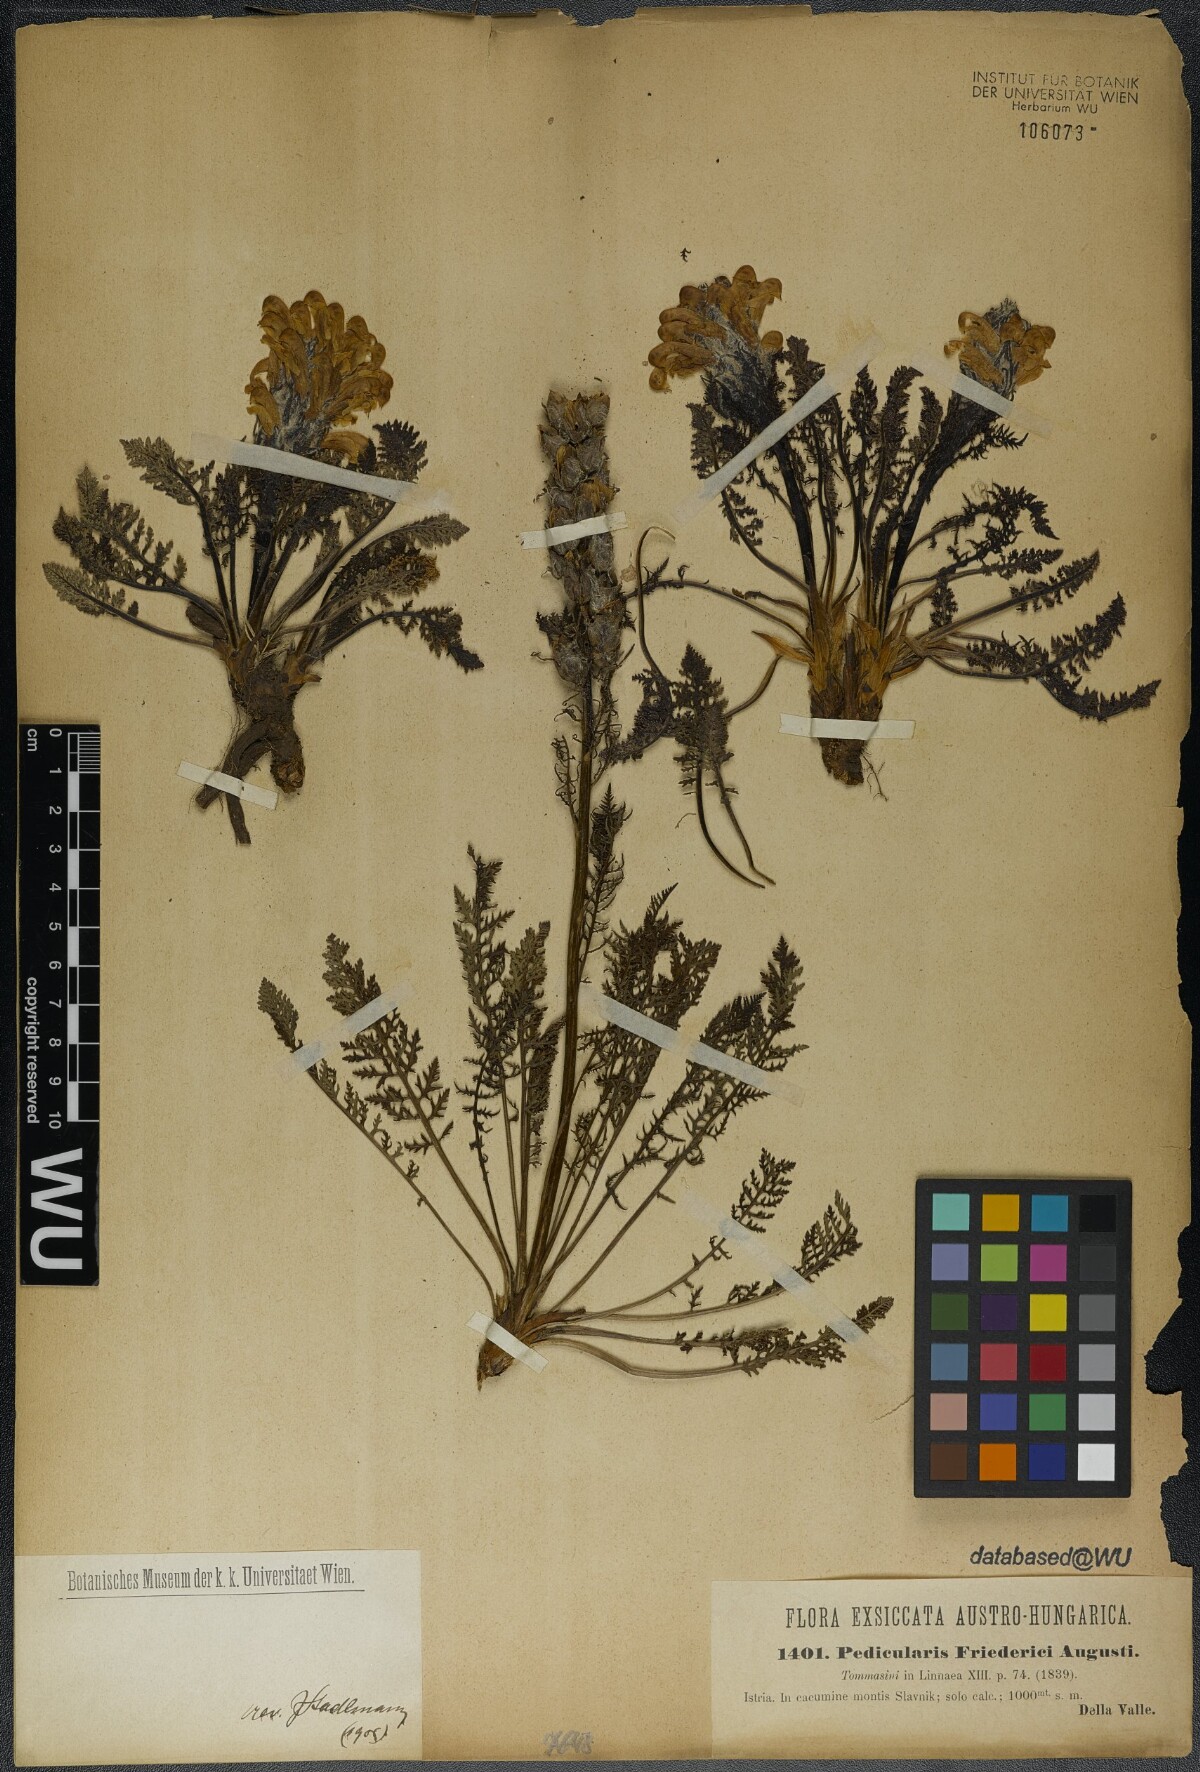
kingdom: Plantae
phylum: Tracheophyta
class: Magnoliopsida
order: Lamiales
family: Orobanchaceae
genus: Pedicularis
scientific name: Pedicularis friderici-augusti
